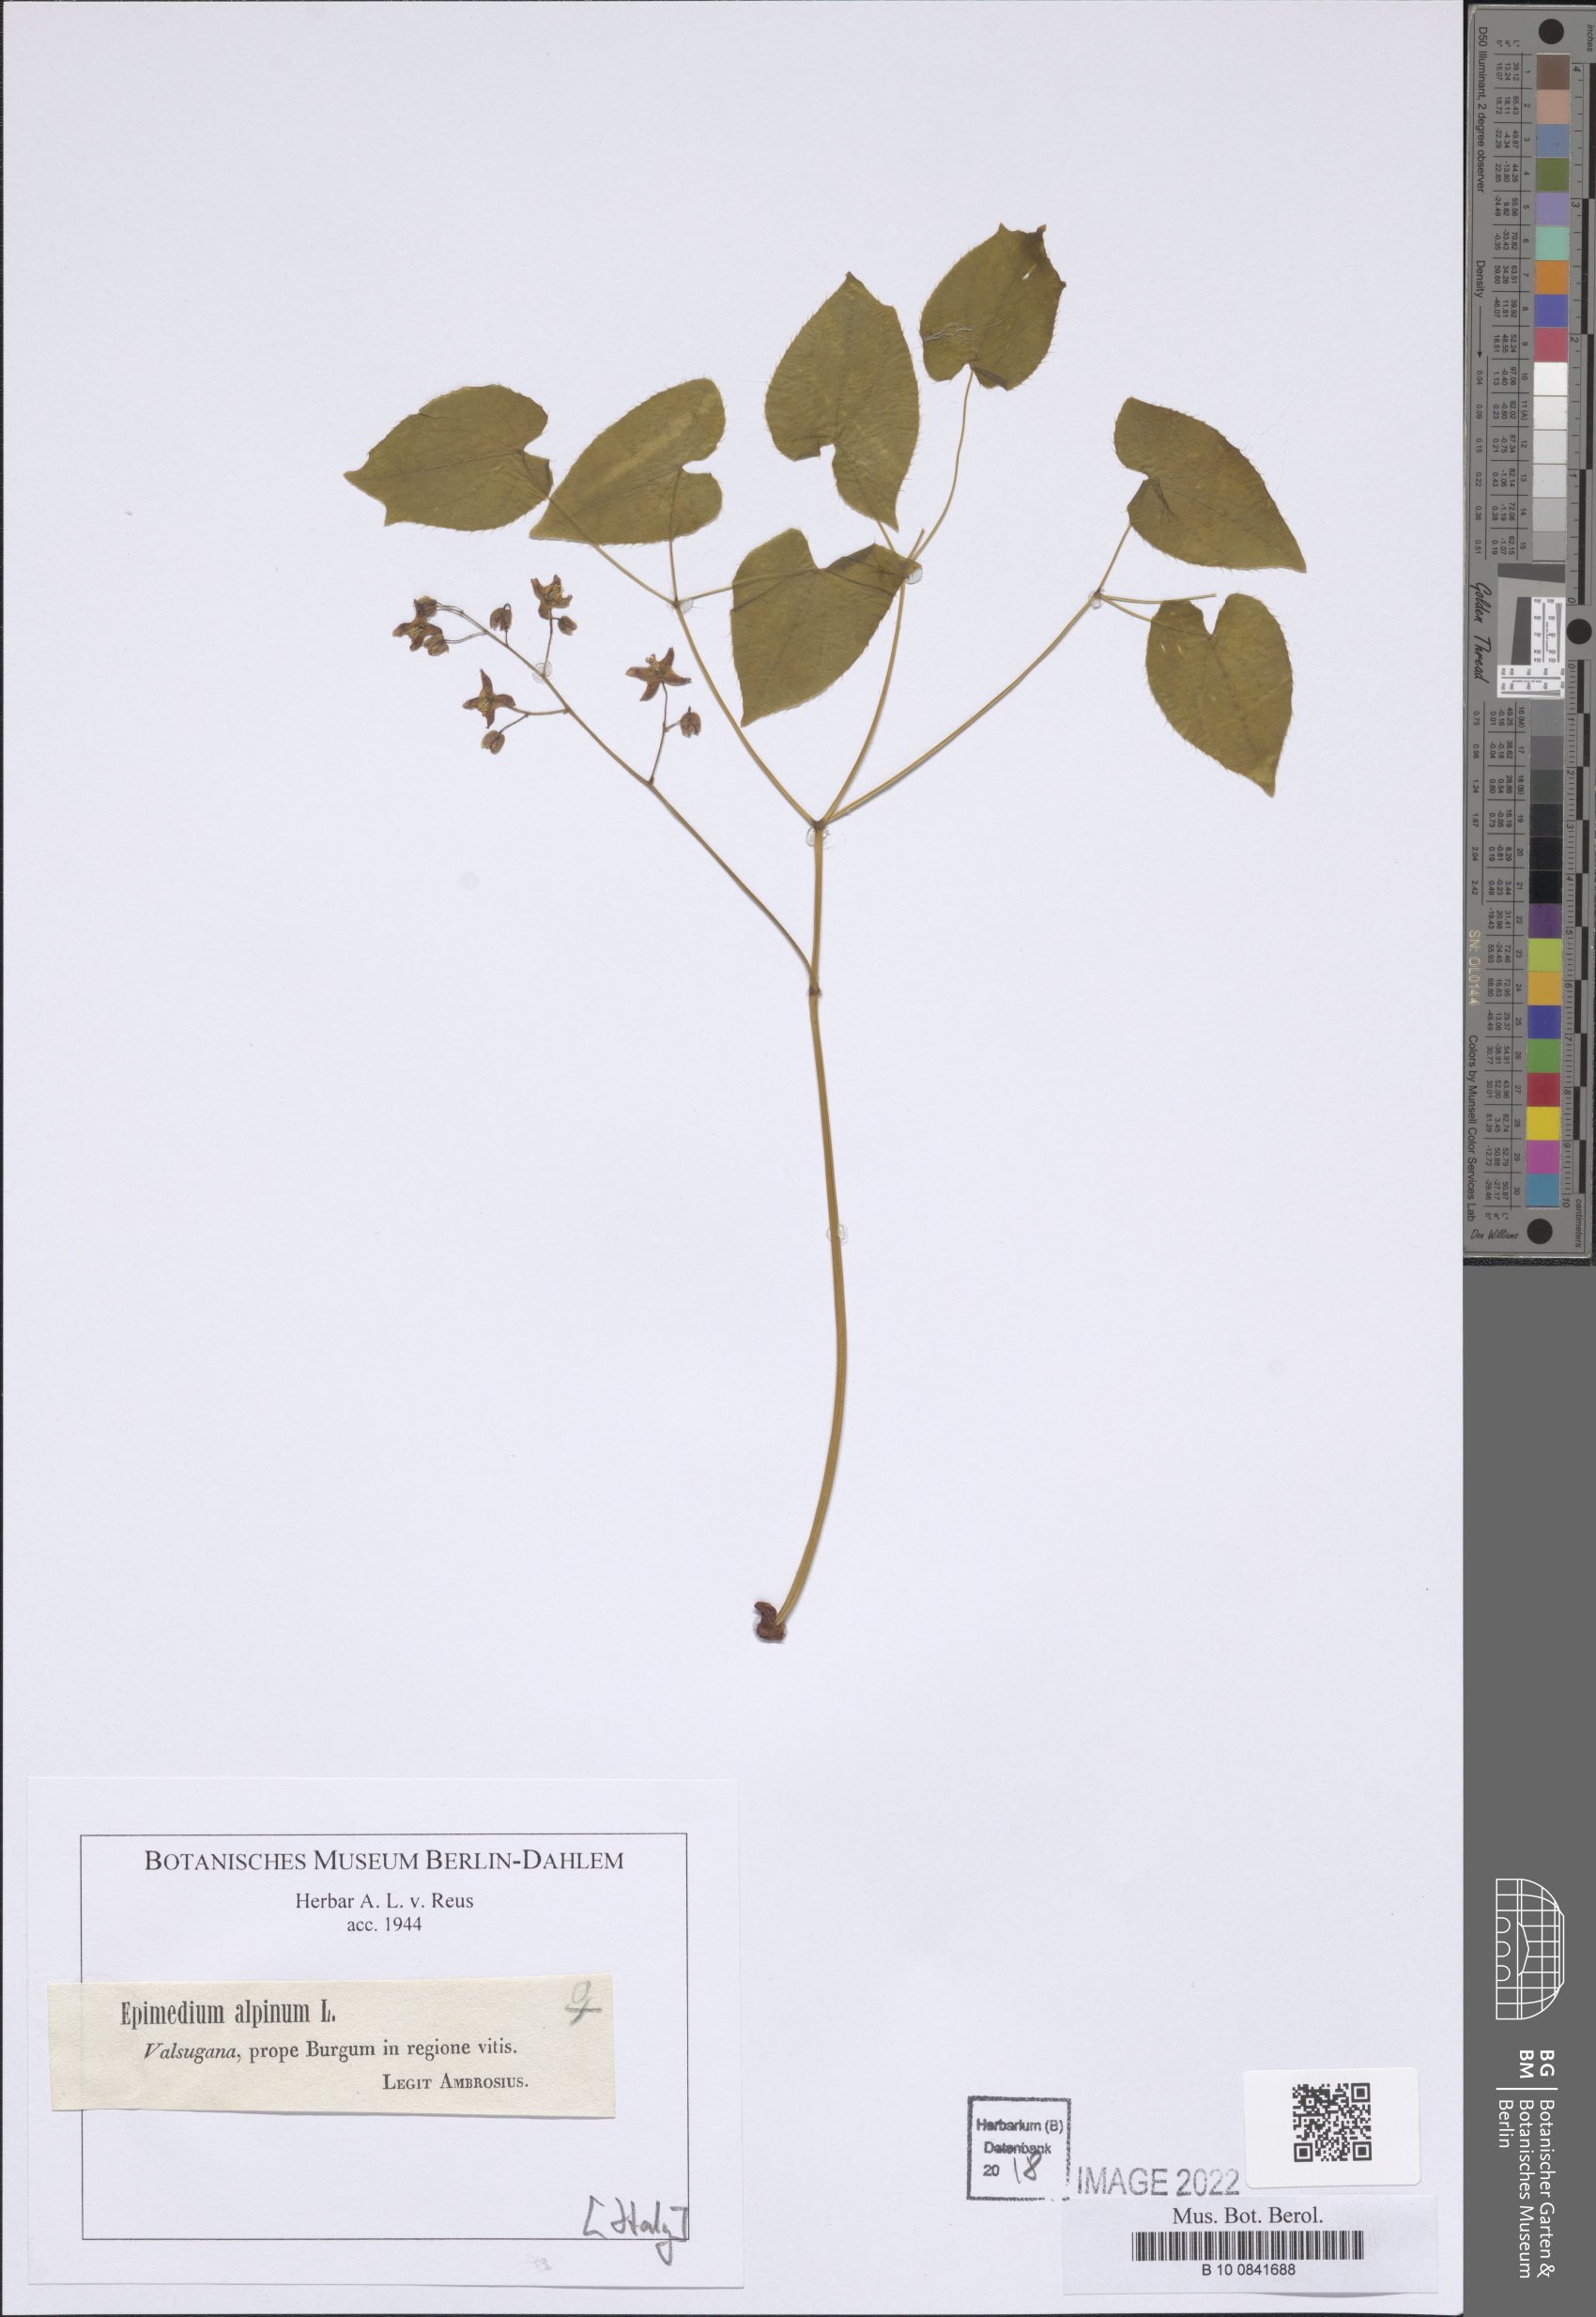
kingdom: Plantae
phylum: Tracheophyta
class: Magnoliopsida
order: Ranunculales
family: Berberidaceae
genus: Epimedium
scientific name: Epimedium alpinum
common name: Barrenwort
